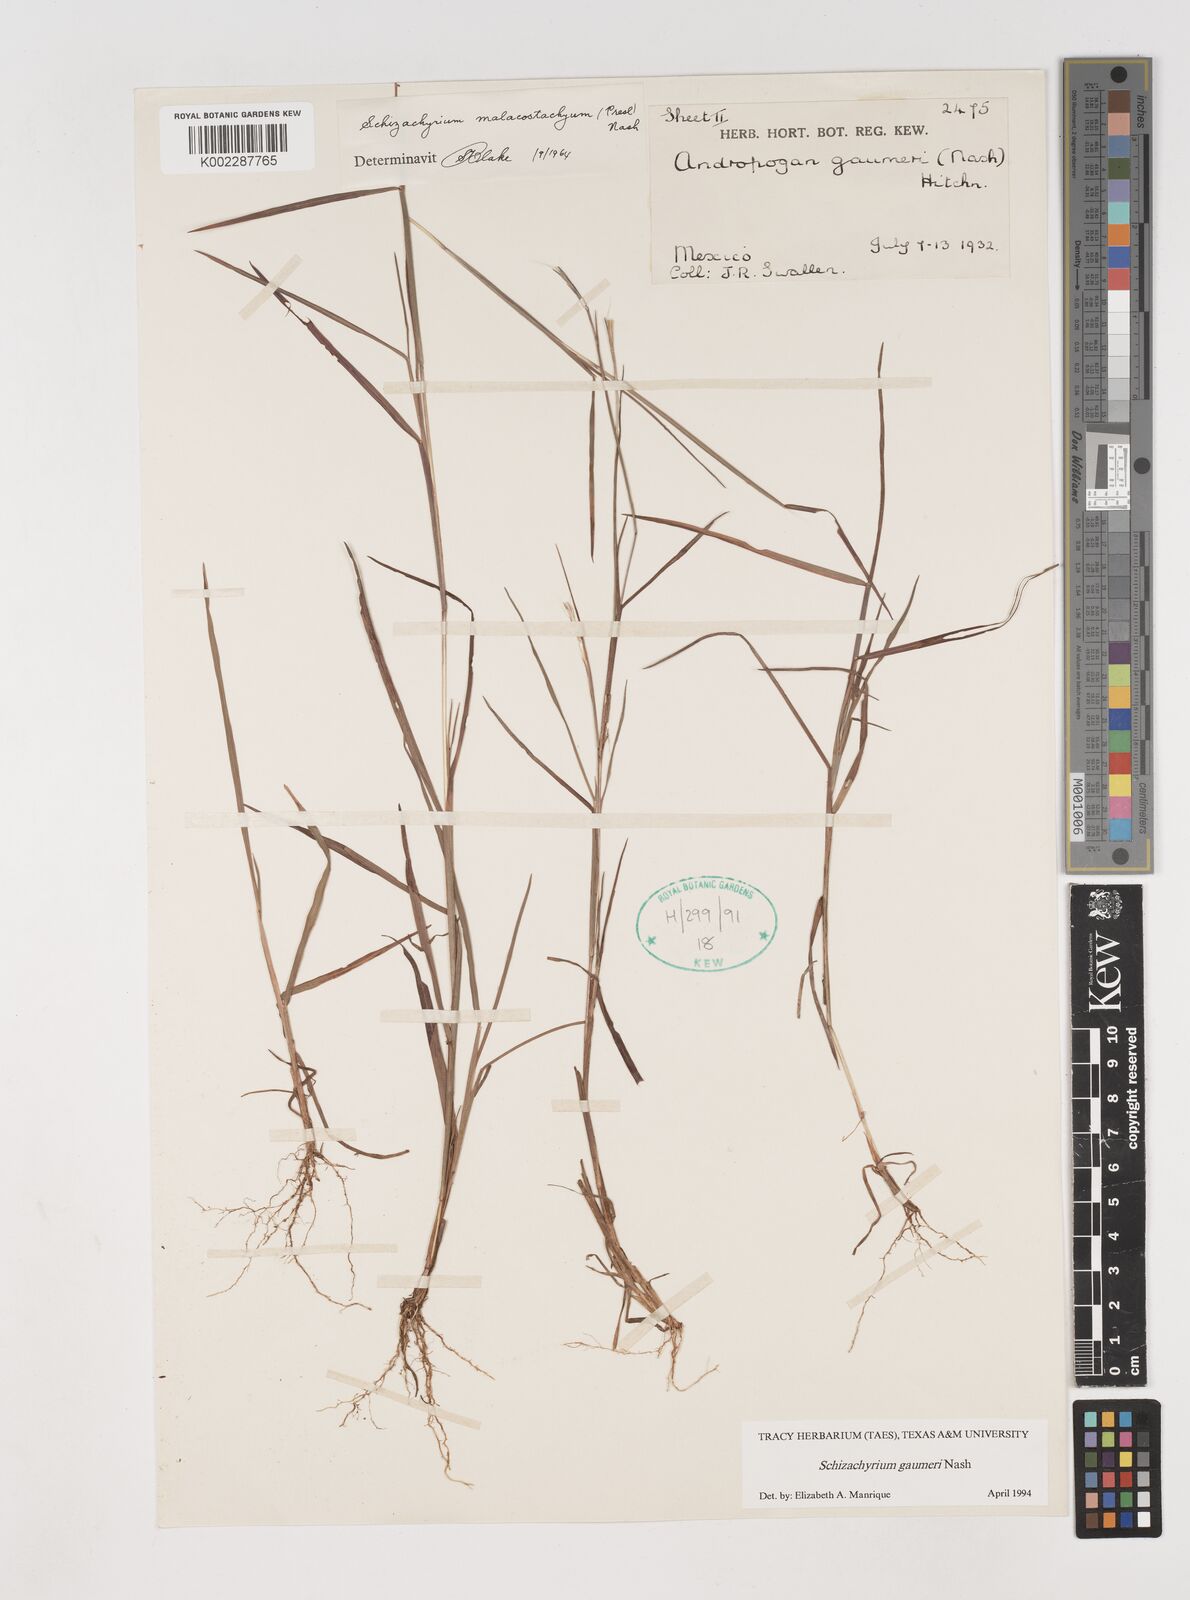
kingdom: Plantae
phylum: Tracheophyta
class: Liliopsida
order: Poales
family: Poaceae
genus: Schizachyrium
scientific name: Schizachyrium gaumeri
